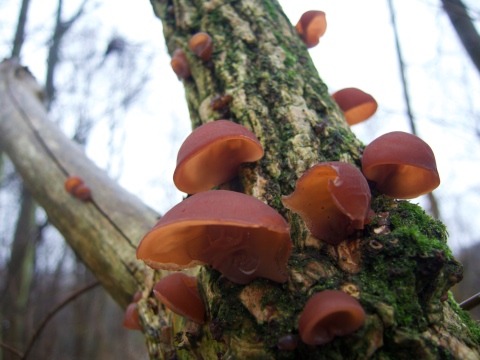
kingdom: Fungi
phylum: Basidiomycota
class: Agaricomycetes
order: Auriculariales
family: Auriculariaceae
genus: Auricularia
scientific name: Auricularia auricula-judae
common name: almindelig judasøre
